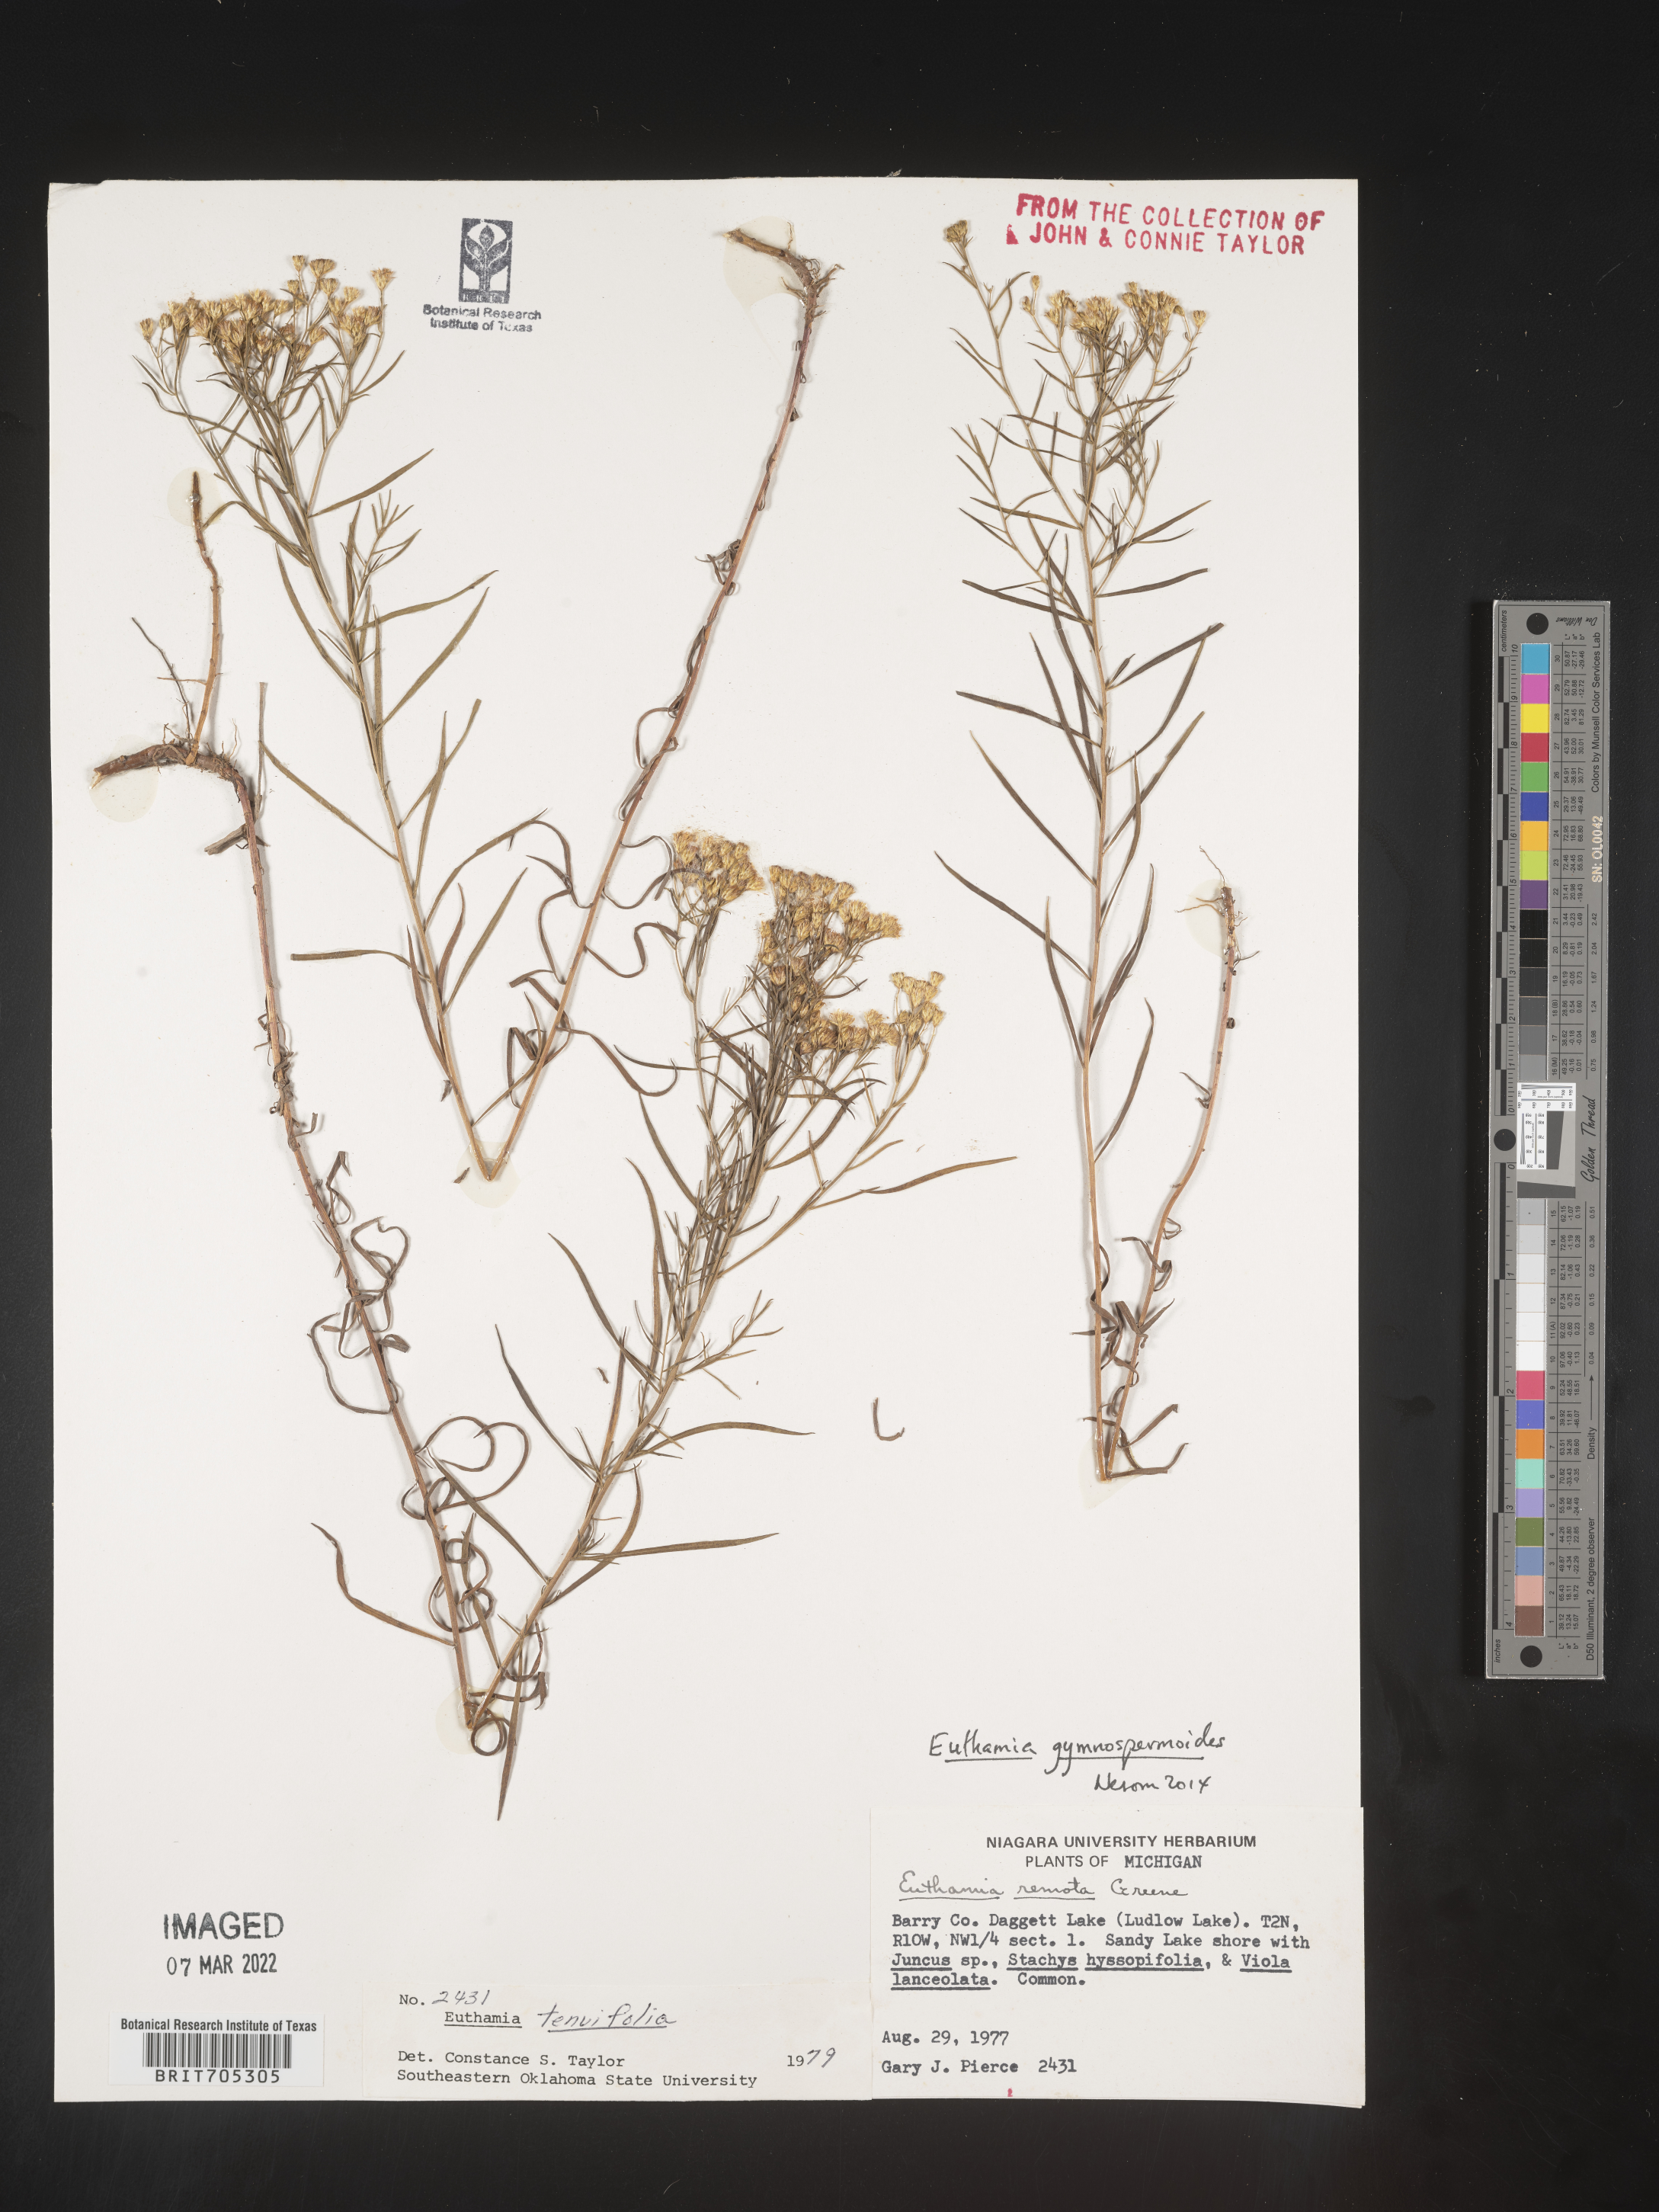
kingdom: Plantae
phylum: Tracheophyta
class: Magnoliopsida
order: Asterales
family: Asteraceae
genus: Euthamia
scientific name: Euthamia gymnospermoides
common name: Great plains goldentop
